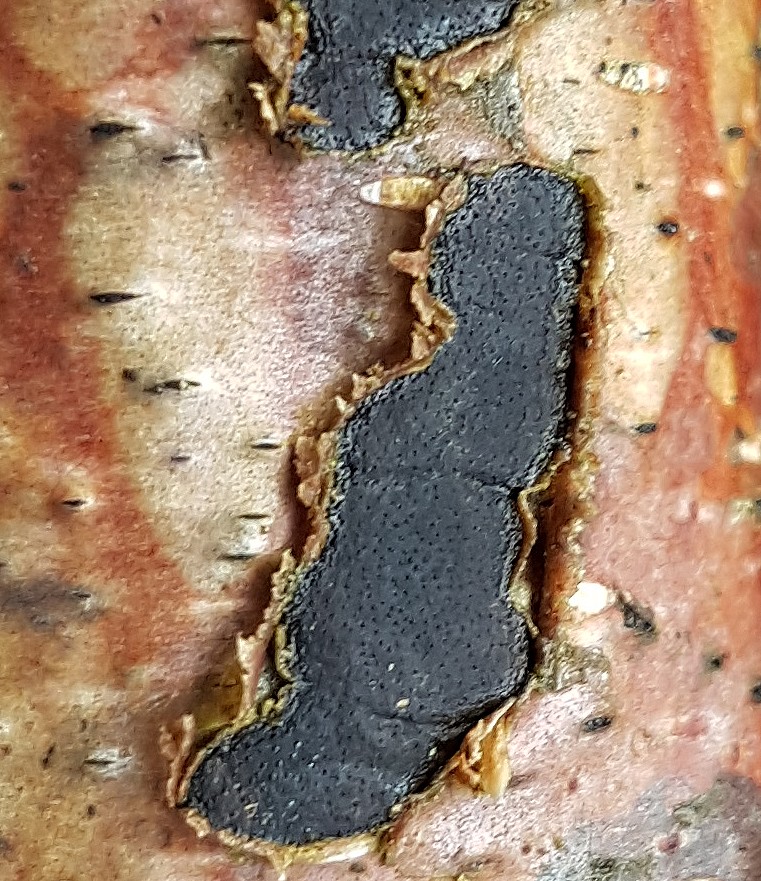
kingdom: Fungi
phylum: Ascomycota
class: Sordariomycetes
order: Xylariales
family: Diatrypaceae
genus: Diatrype
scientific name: Diatrype
